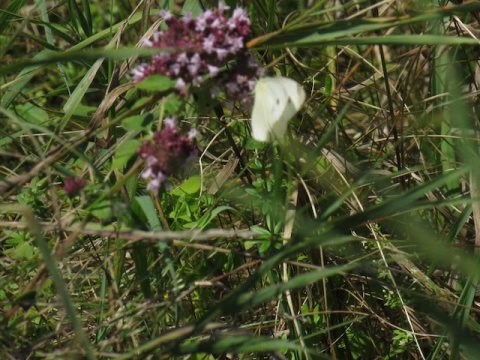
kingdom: Animalia
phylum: Arthropoda
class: Insecta
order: Lepidoptera
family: Pieridae
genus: Pieris
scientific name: Pieris rapae
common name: Cabbage White
